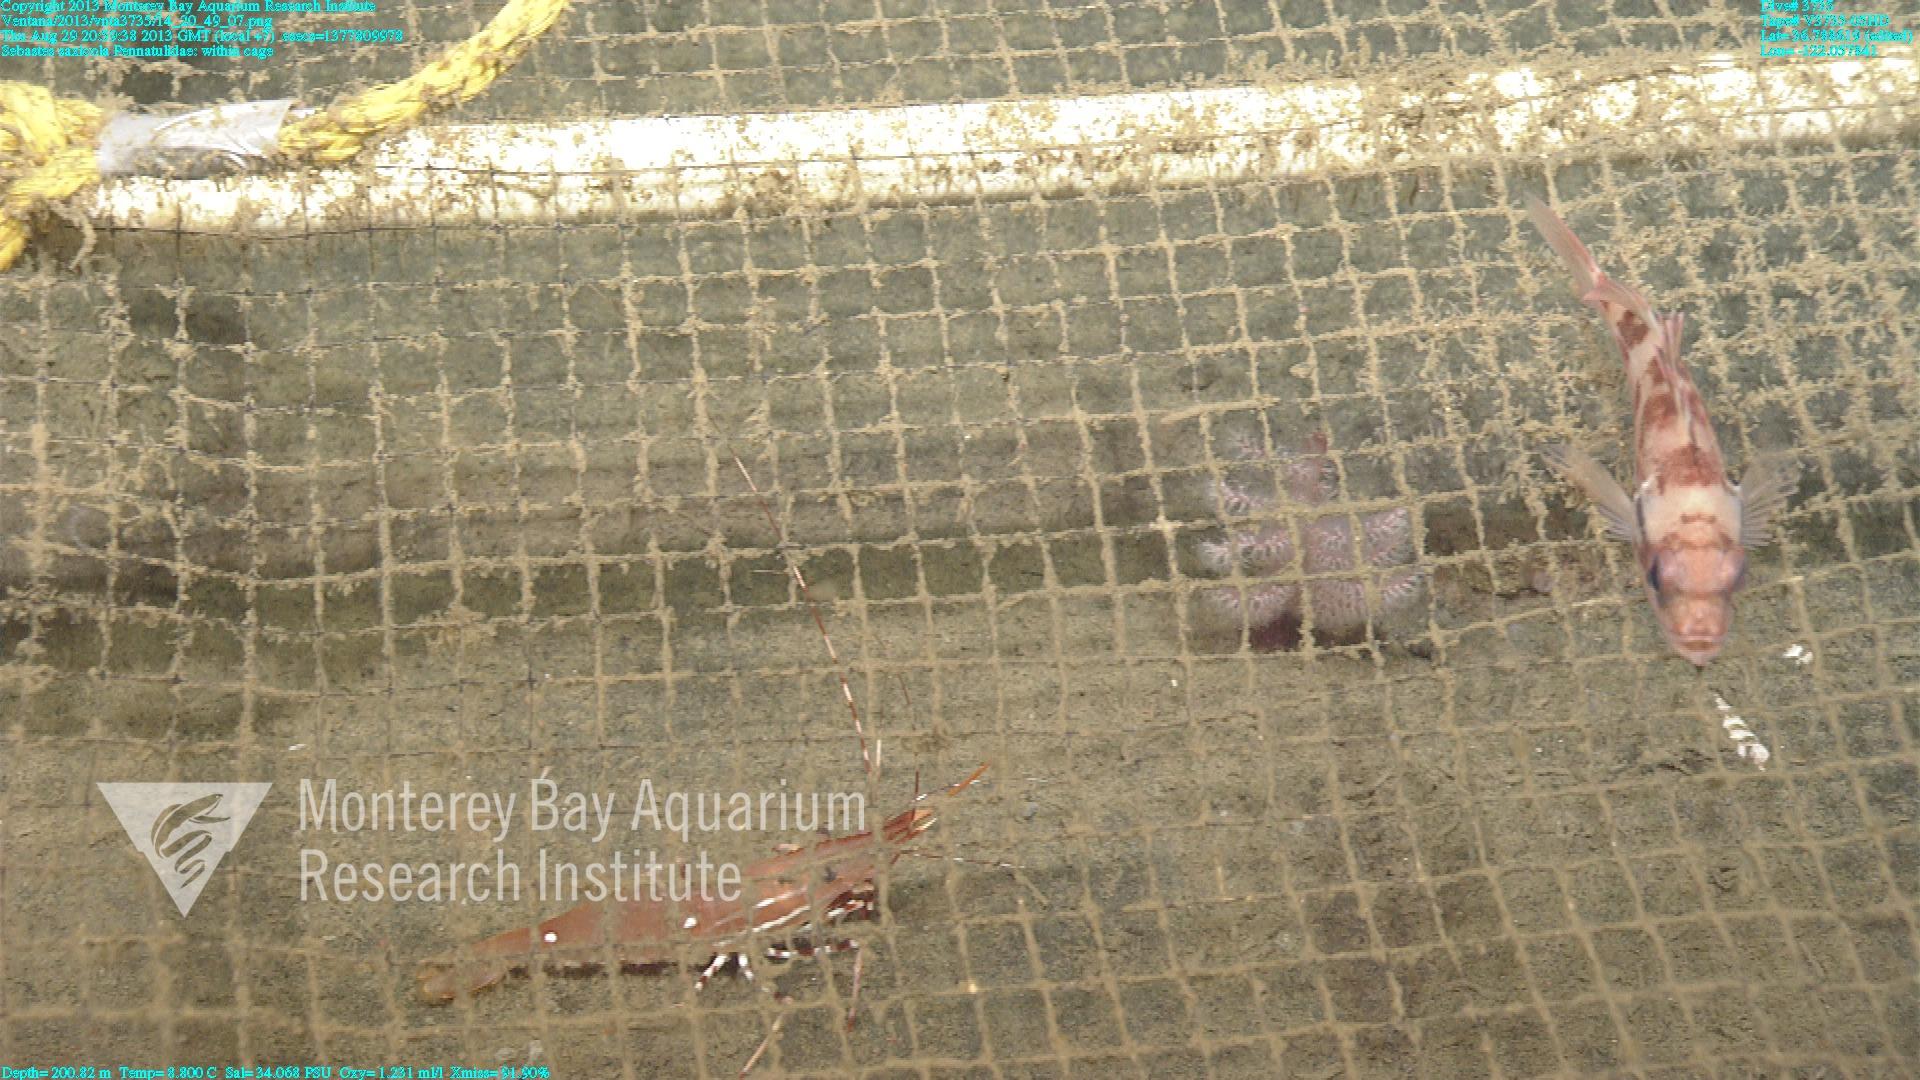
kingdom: Animalia
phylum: Cnidaria
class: Anthozoa
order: Scleralcyonacea
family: Pennatulidae
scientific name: Pennatulidae
